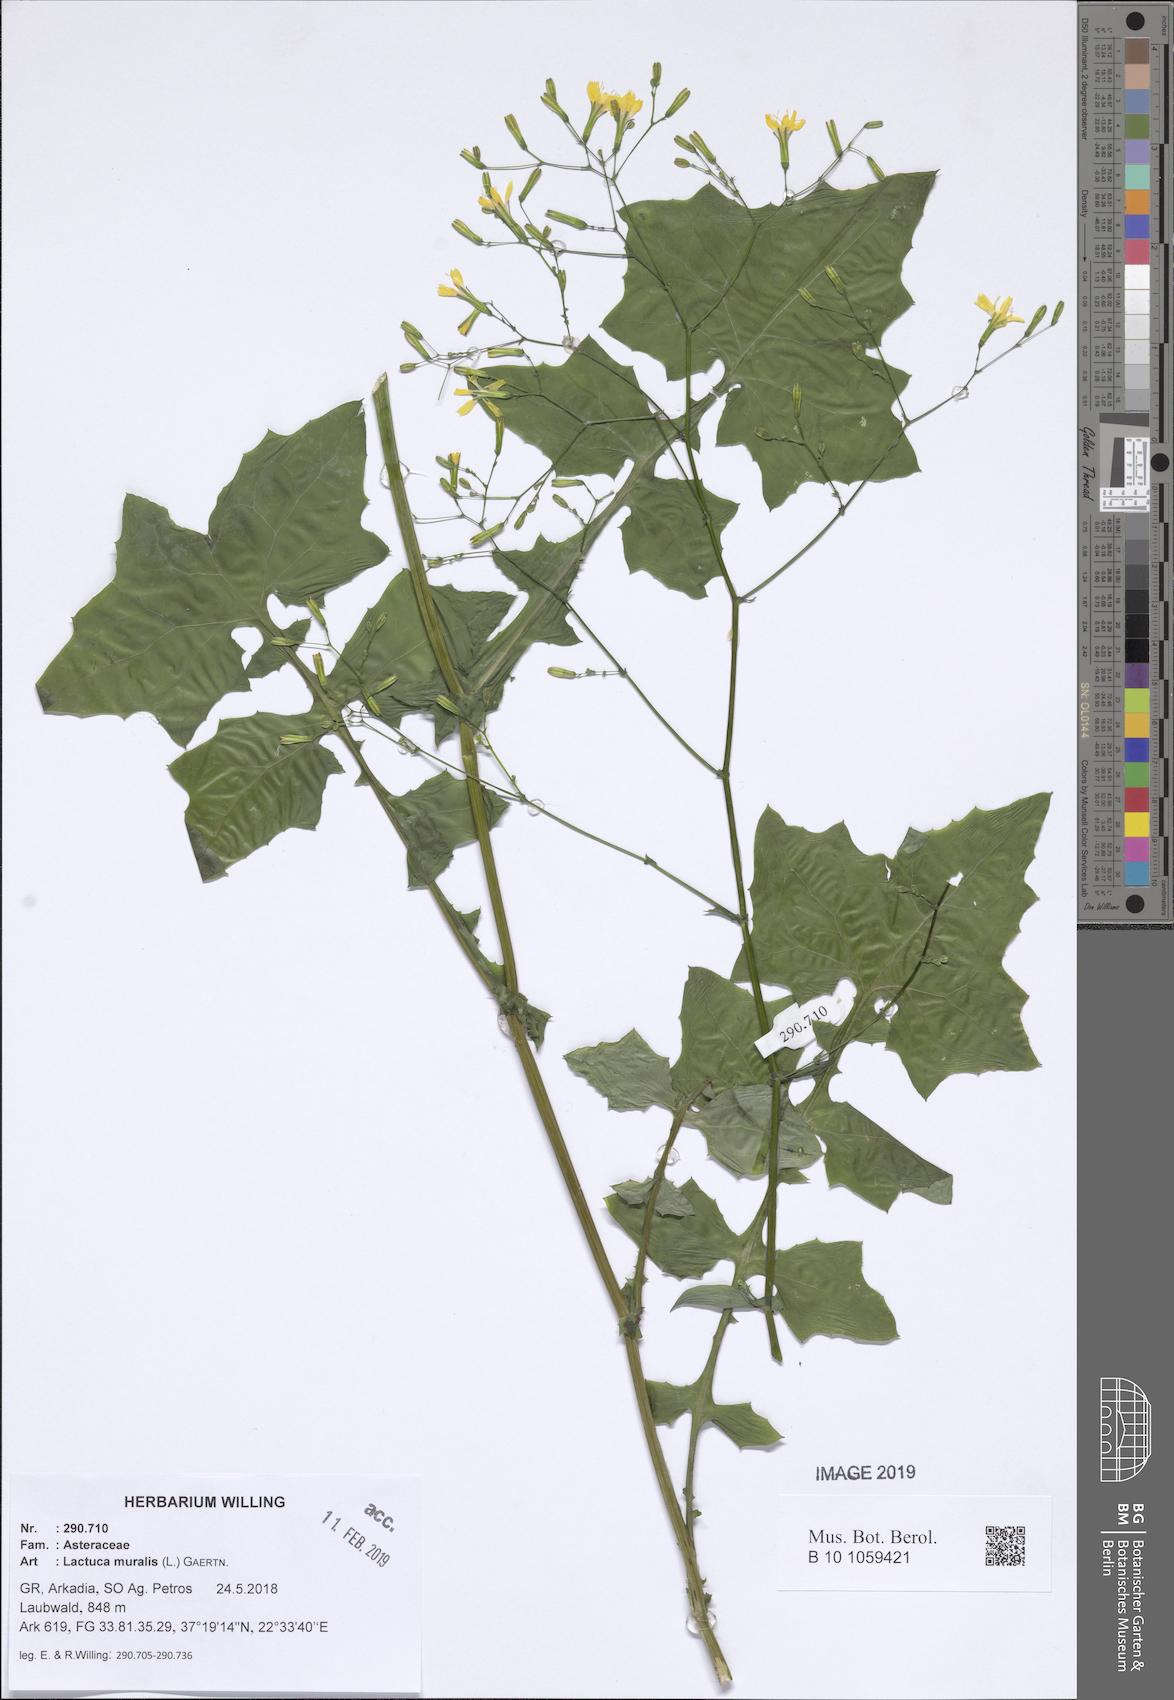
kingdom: Plantae
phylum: Tracheophyta
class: Magnoliopsida
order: Asterales
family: Asteraceae
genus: Mycelis
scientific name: Mycelis muralis
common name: Wall lettuce
